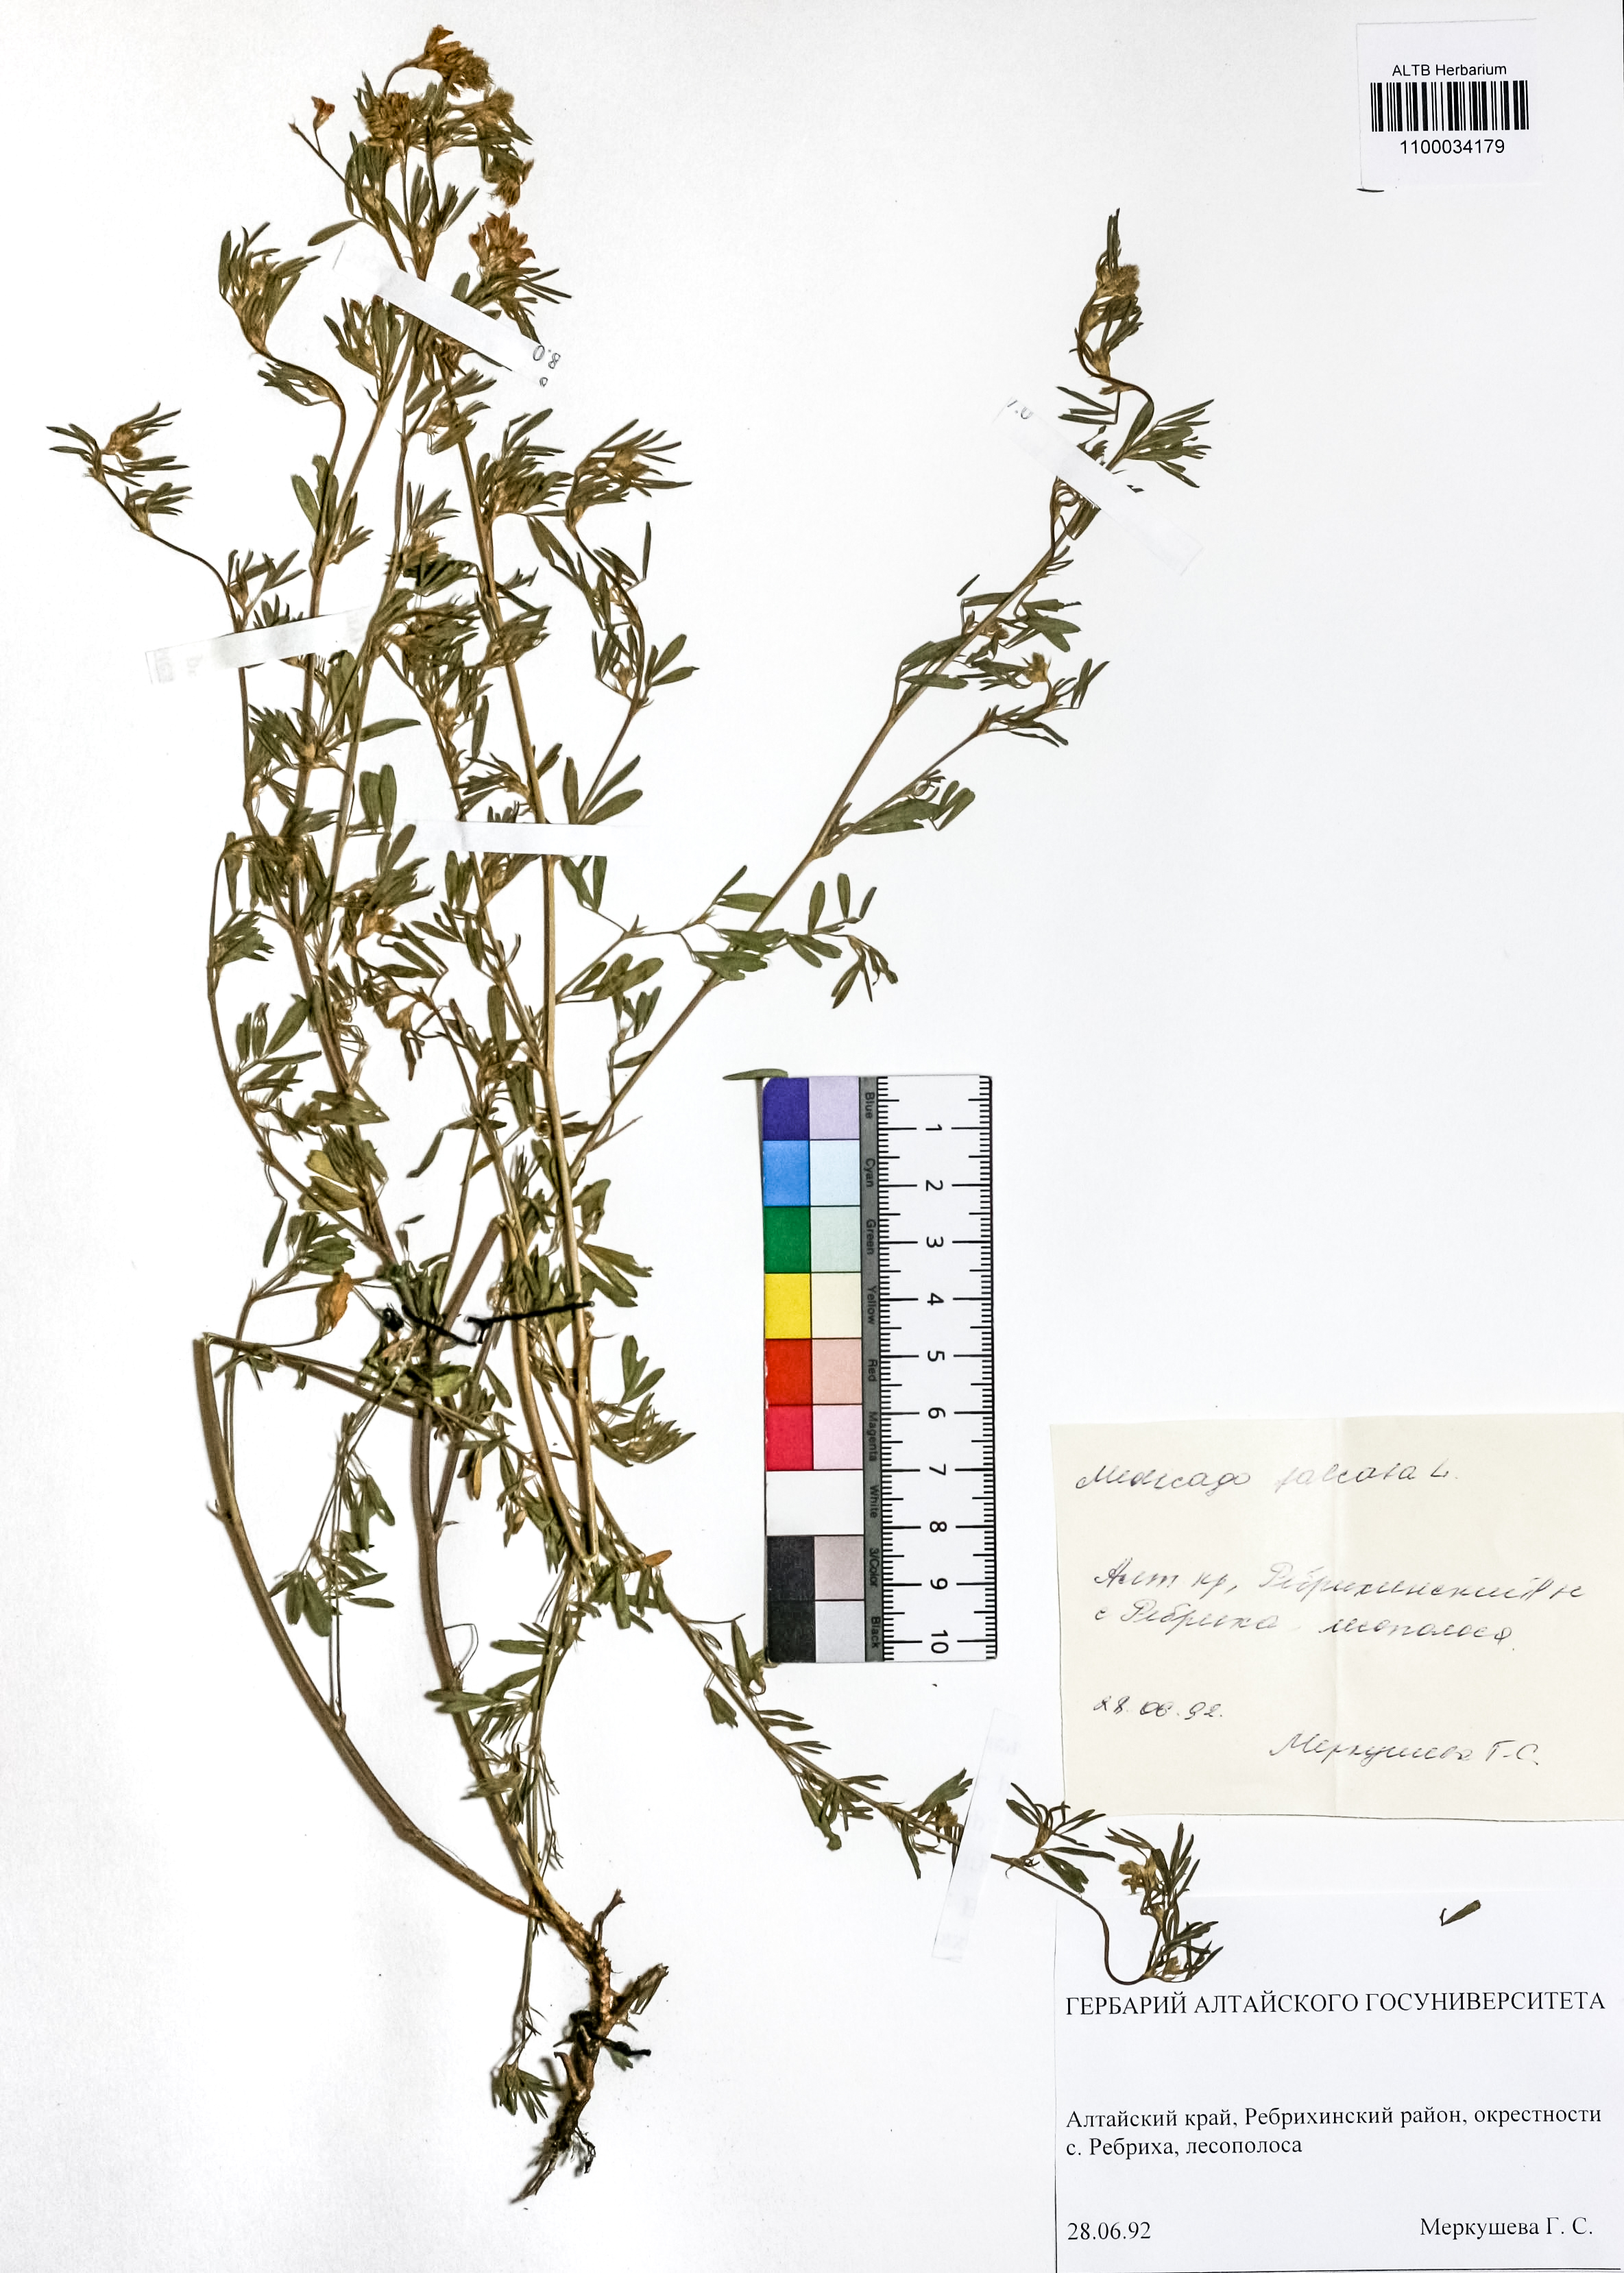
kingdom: Plantae
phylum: Tracheophyta
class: Magnoliopsida
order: Fabales
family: Fabaceae
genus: Medicago
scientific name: Medicago falcata
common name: Sickle medick
